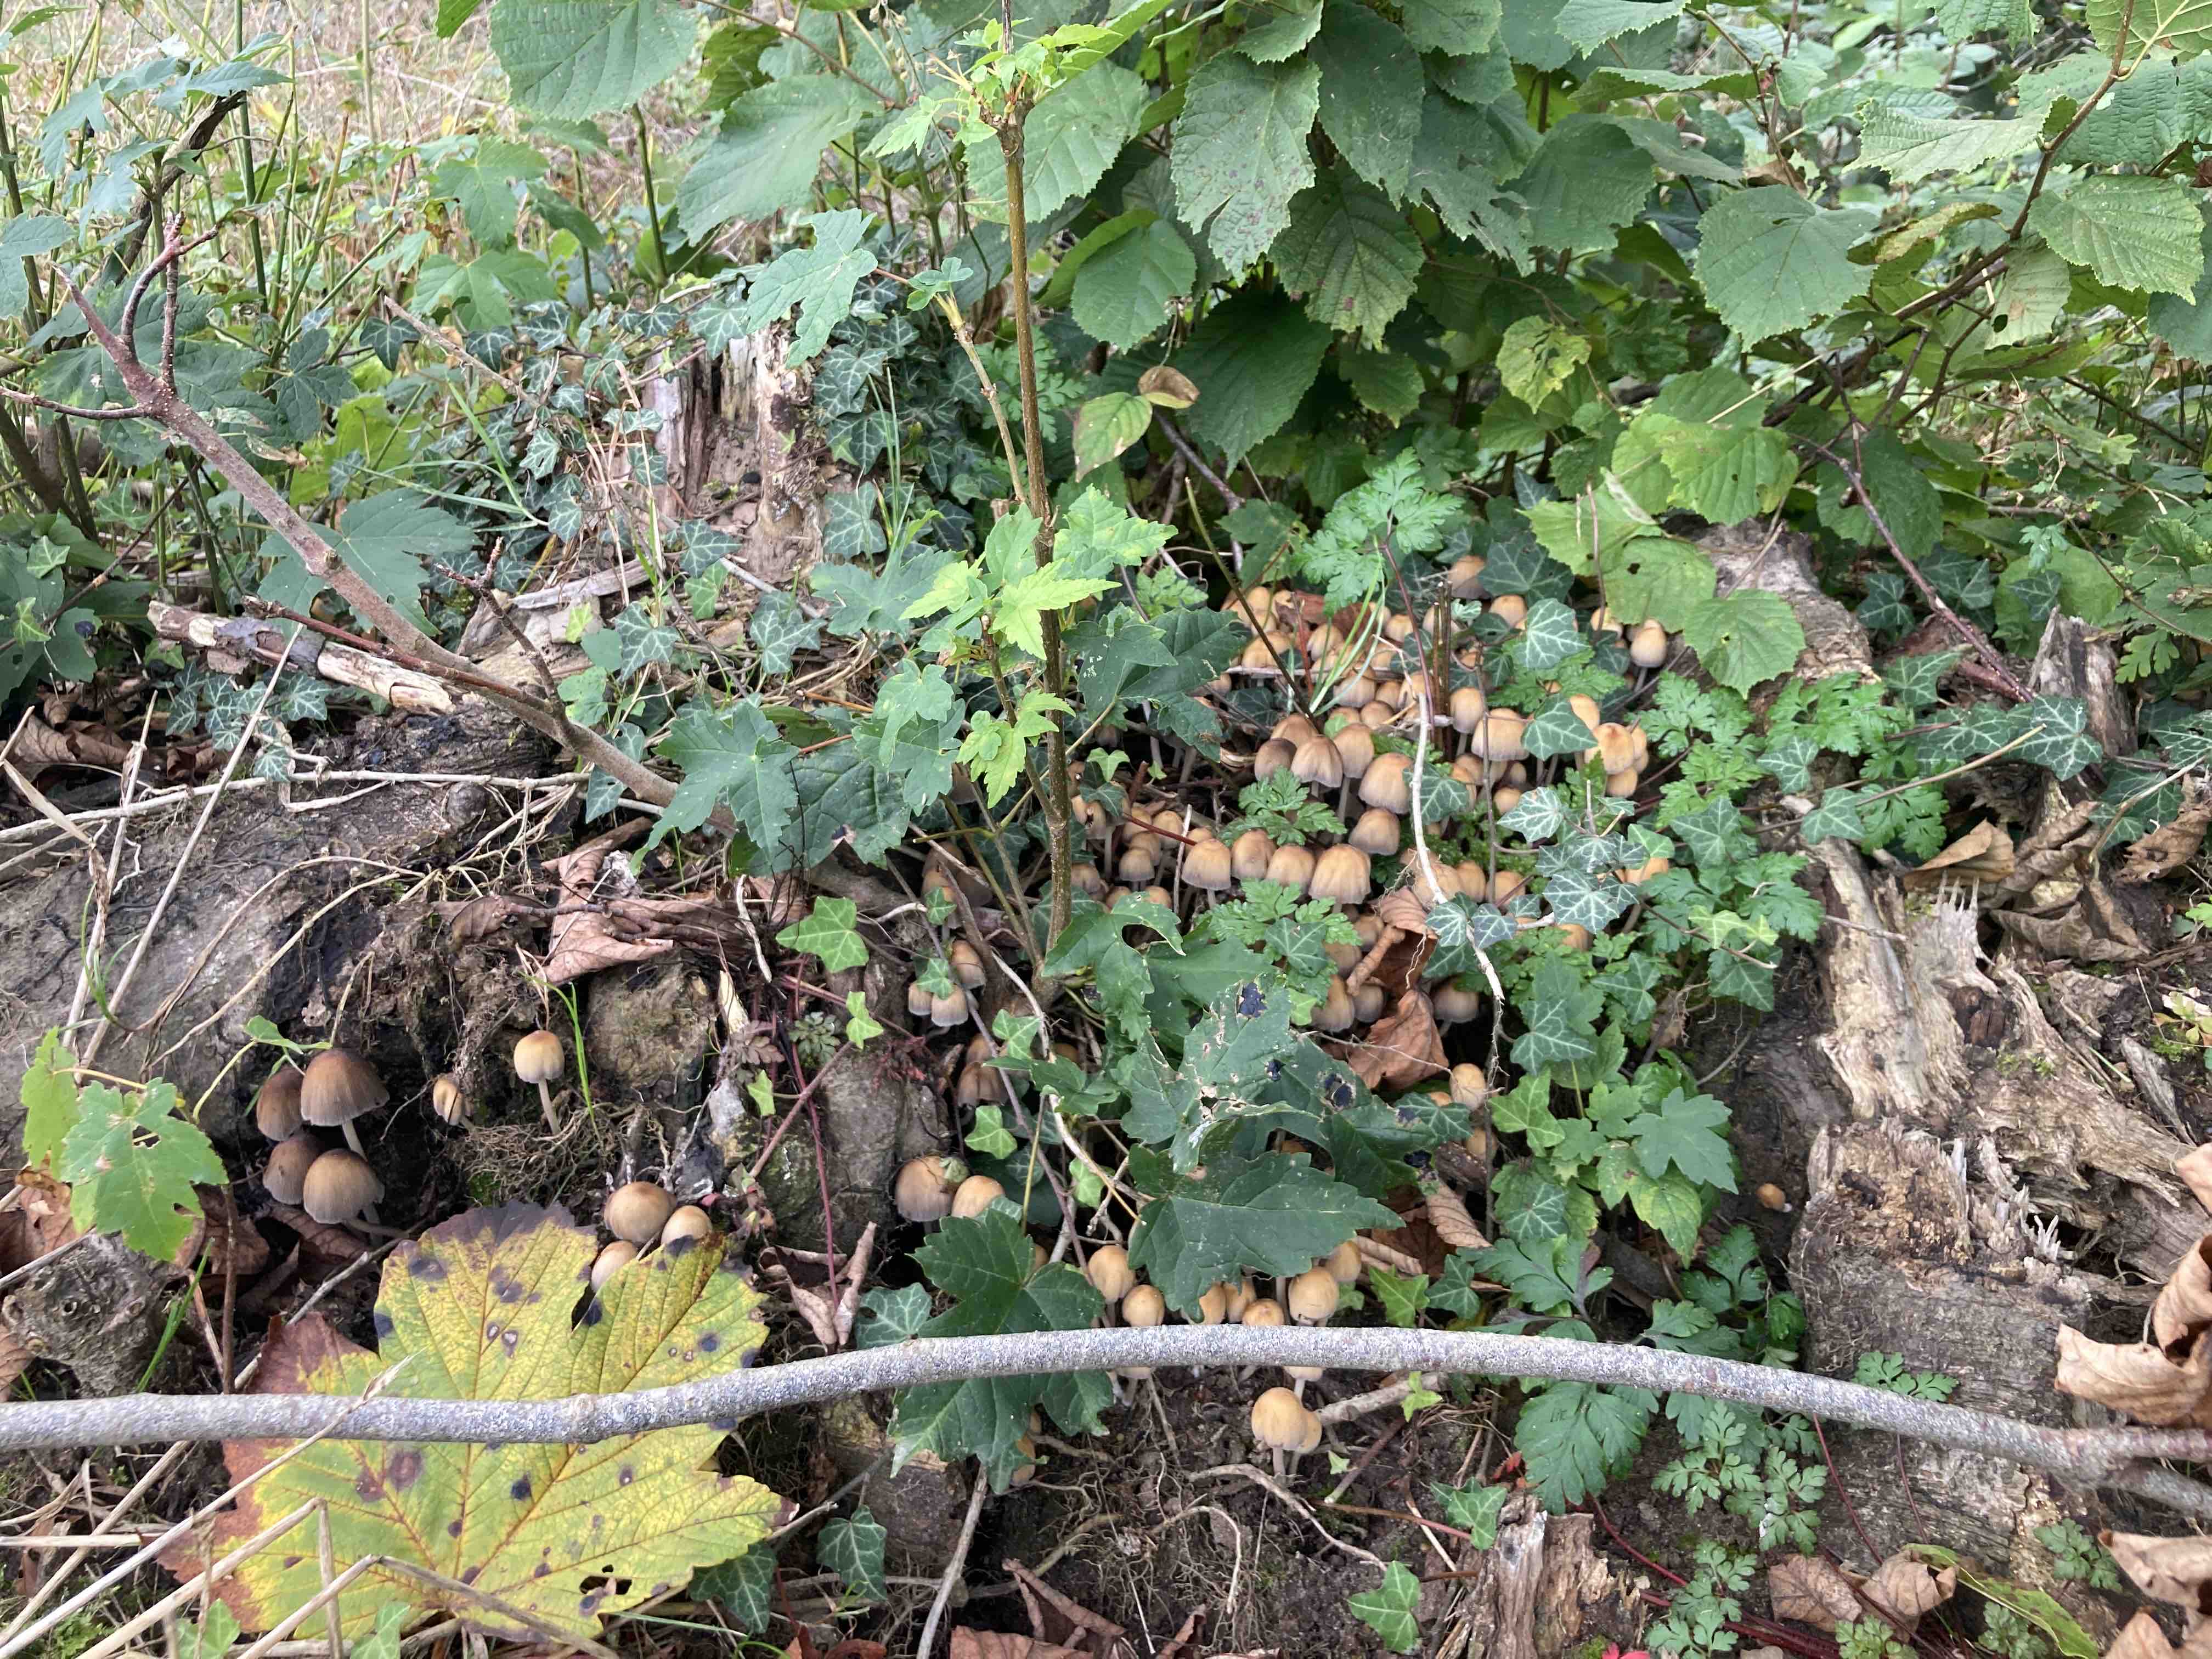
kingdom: Fungi
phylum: Basidiomycota
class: Agaricomycetes
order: Agaricales
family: Psathyrellaceae
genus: Coprinellus
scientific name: Coprinellus micaceus
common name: glimmer-blækhat
